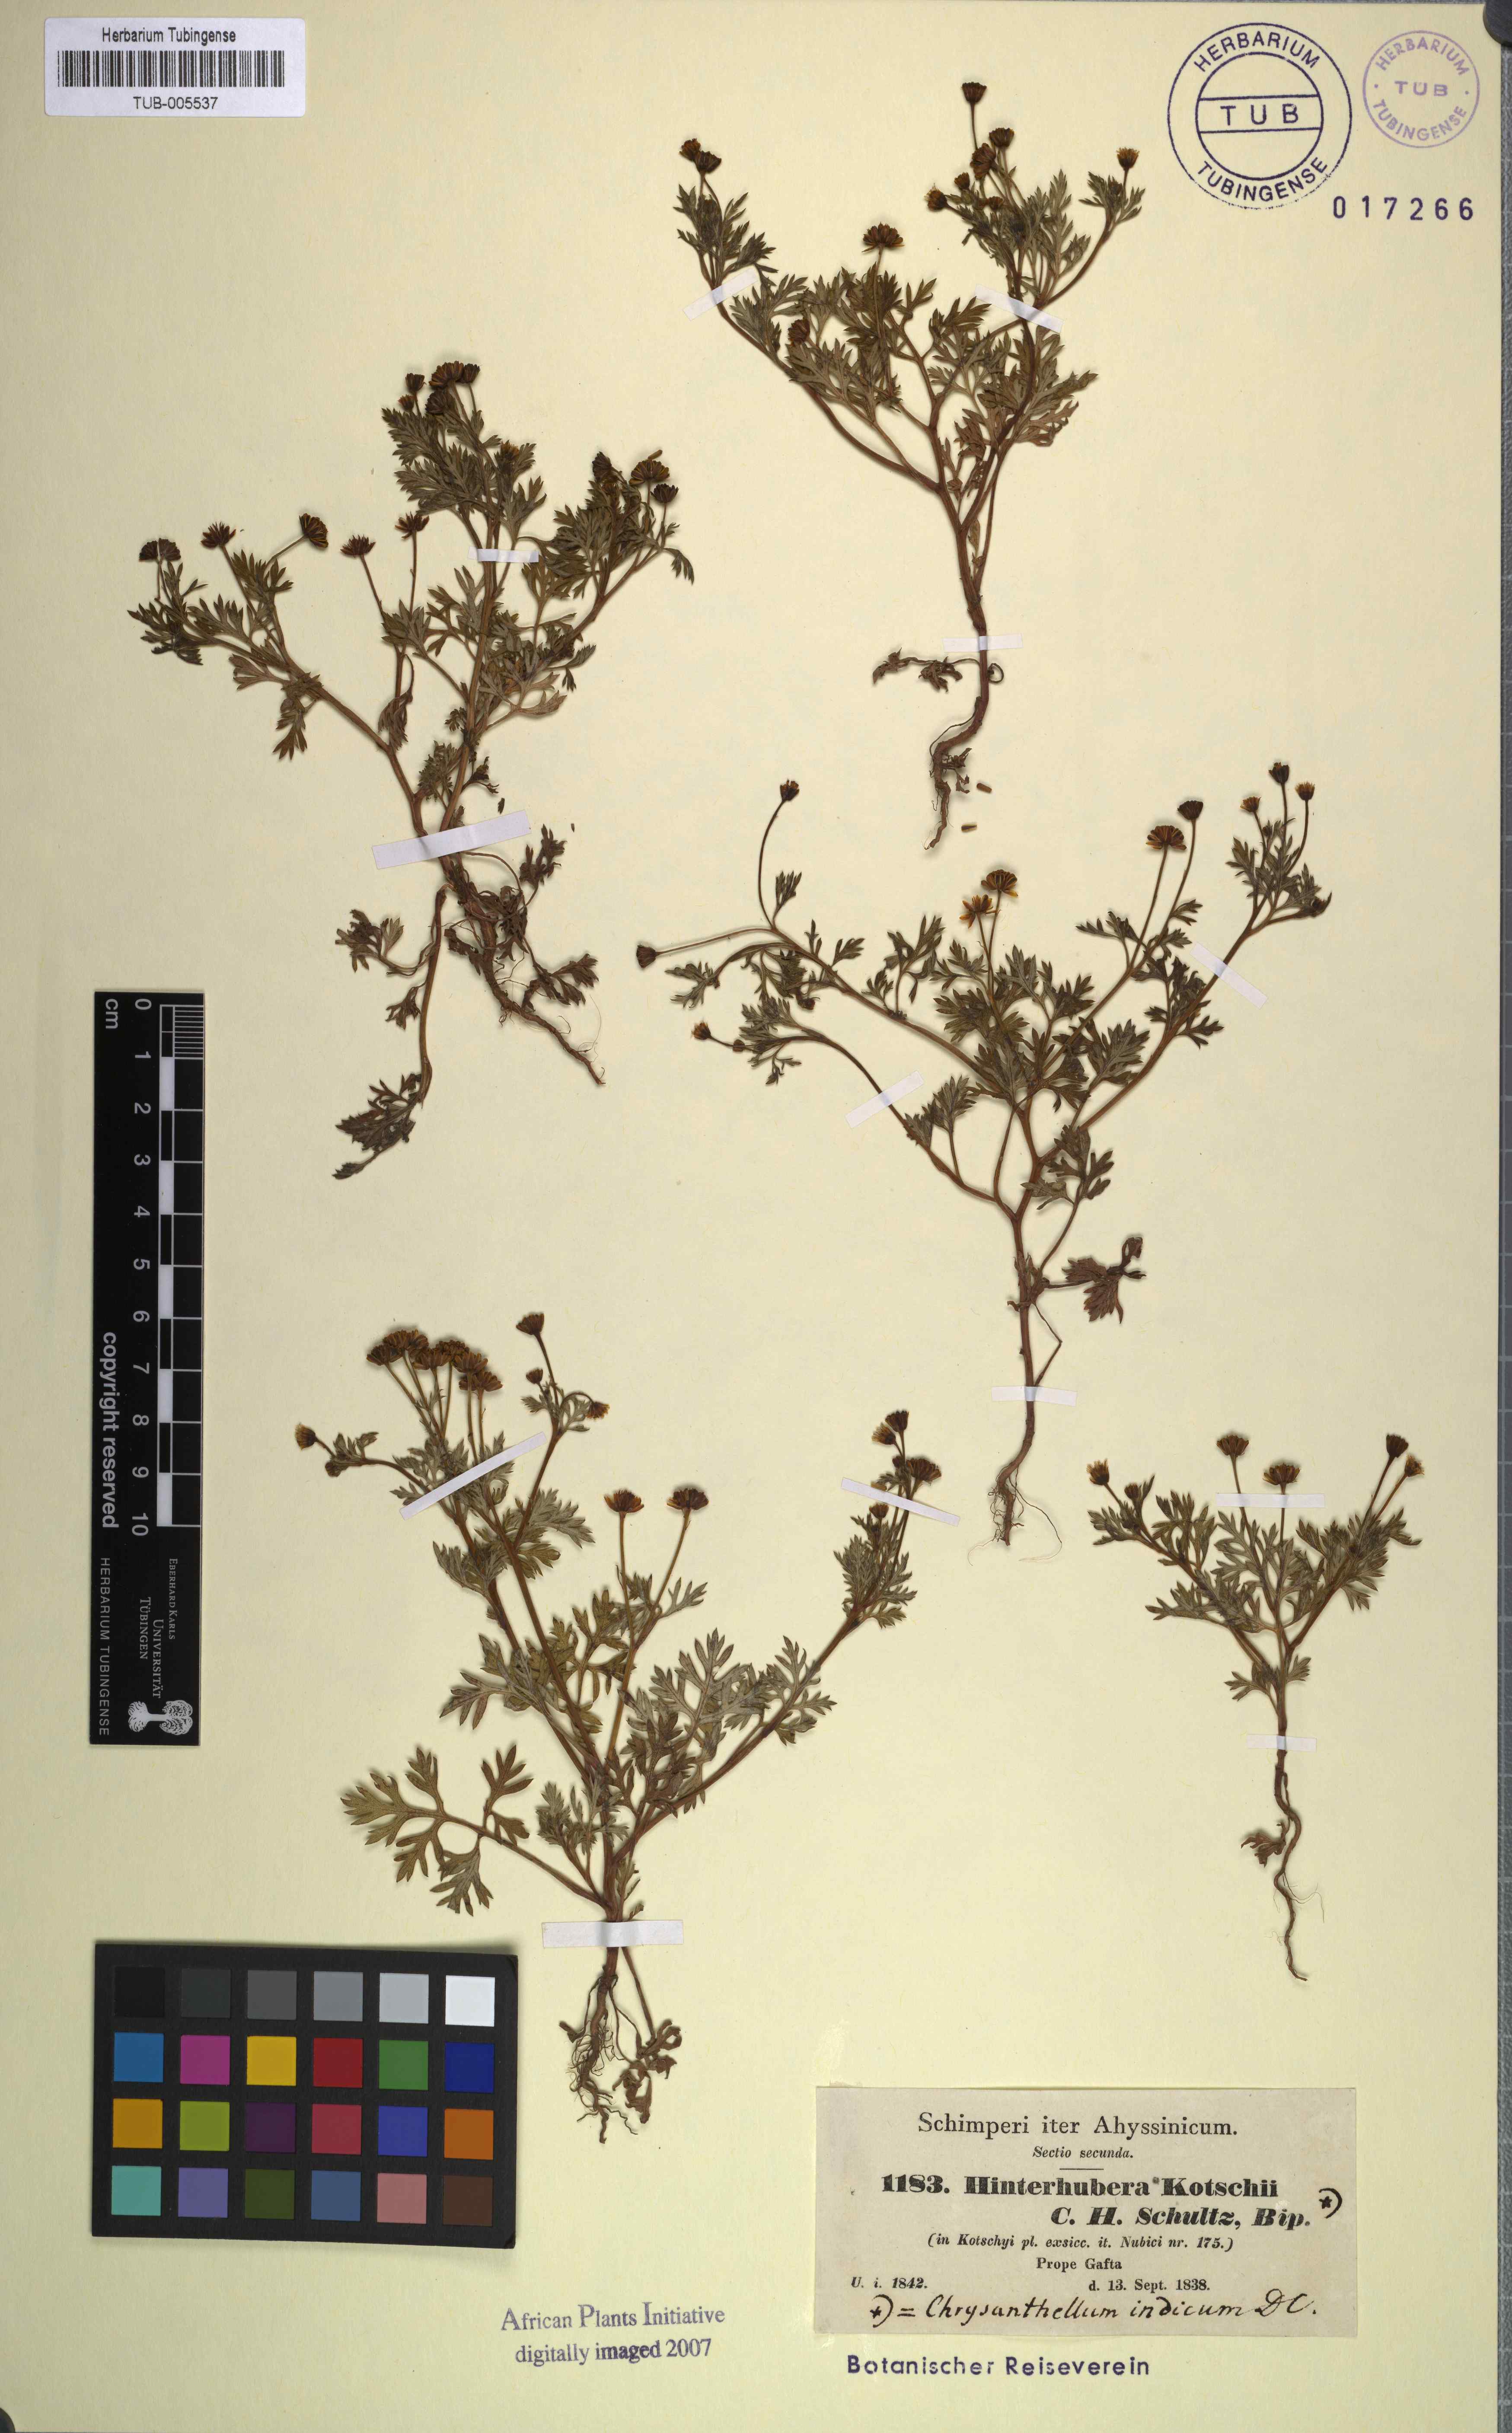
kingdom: Plantae
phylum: Tracheophyta
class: Magnoliopsida
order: Asterales
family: Asteraceae
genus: Chrysanthellum
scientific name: Chrysanthellum indicum
